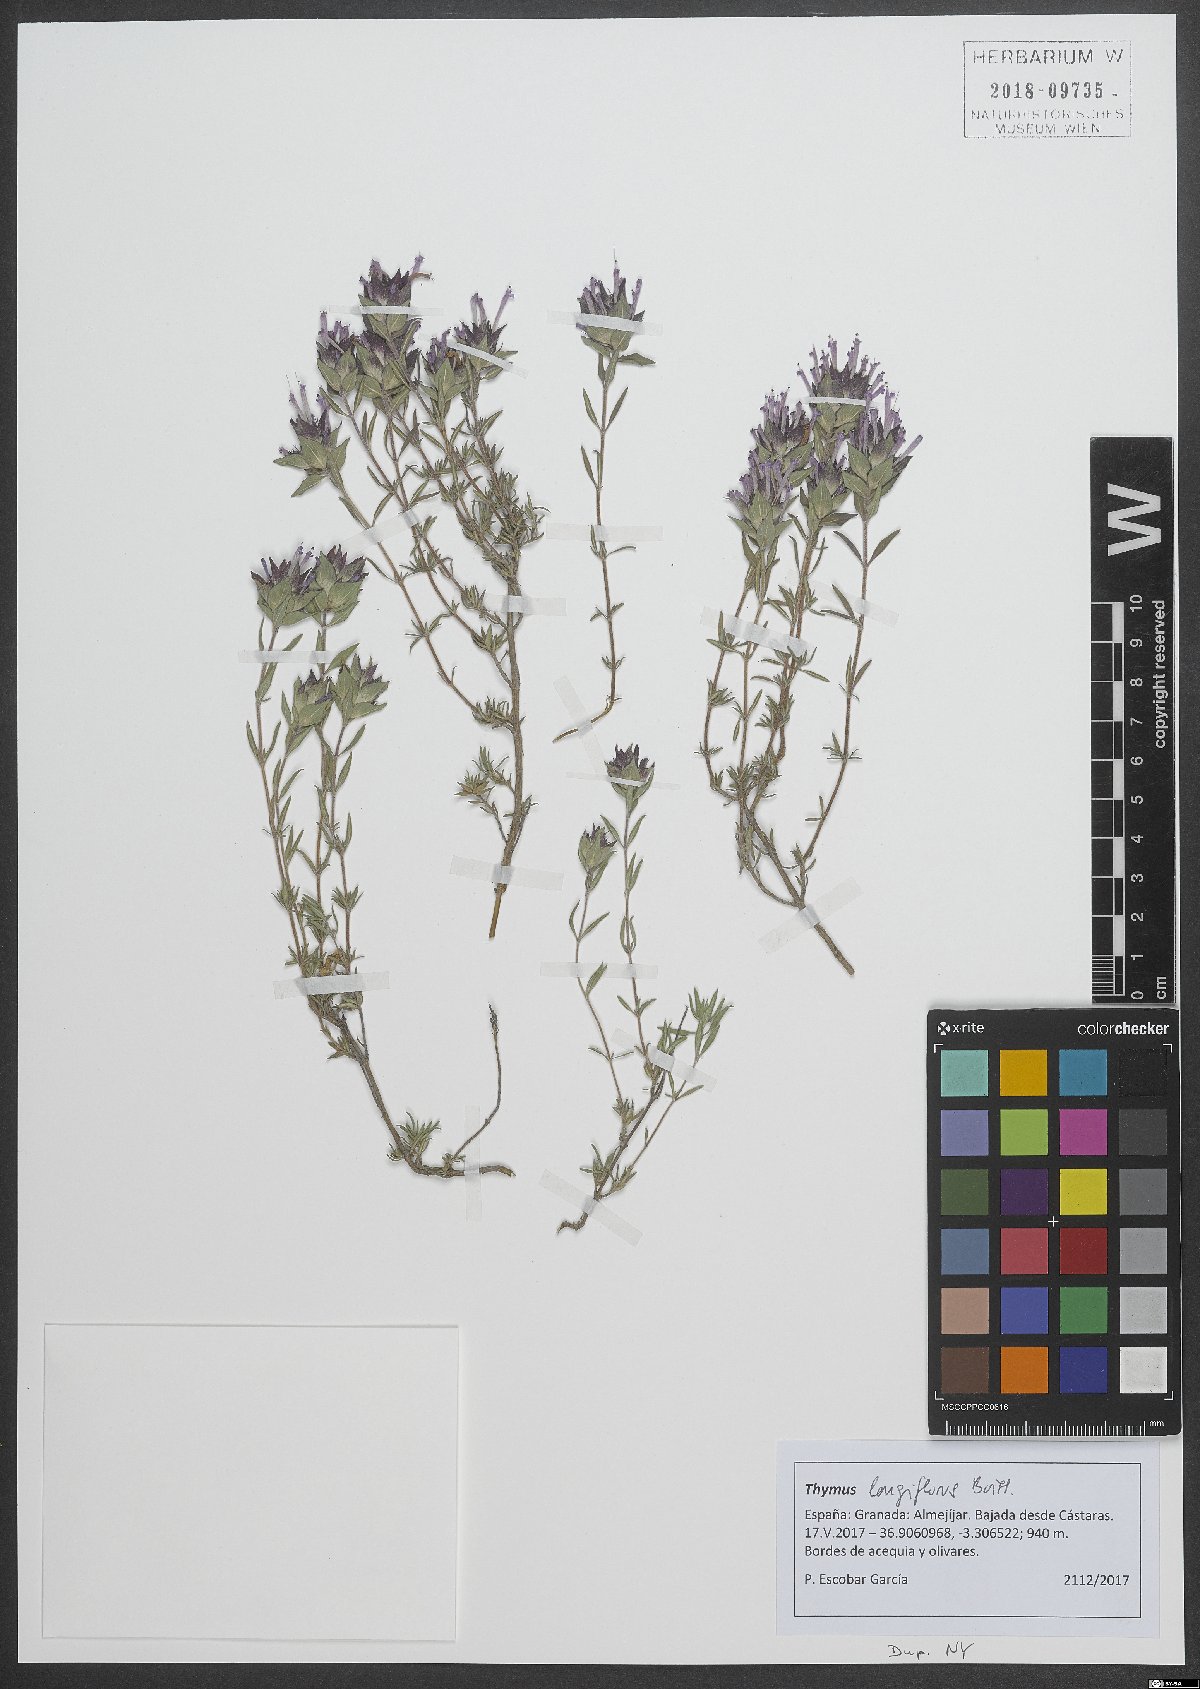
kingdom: Plantae
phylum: Tracheophyta
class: Magnoliopsida
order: Lamiales
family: Lamiaceae
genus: Thymus
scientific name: Thymus longiflorus
